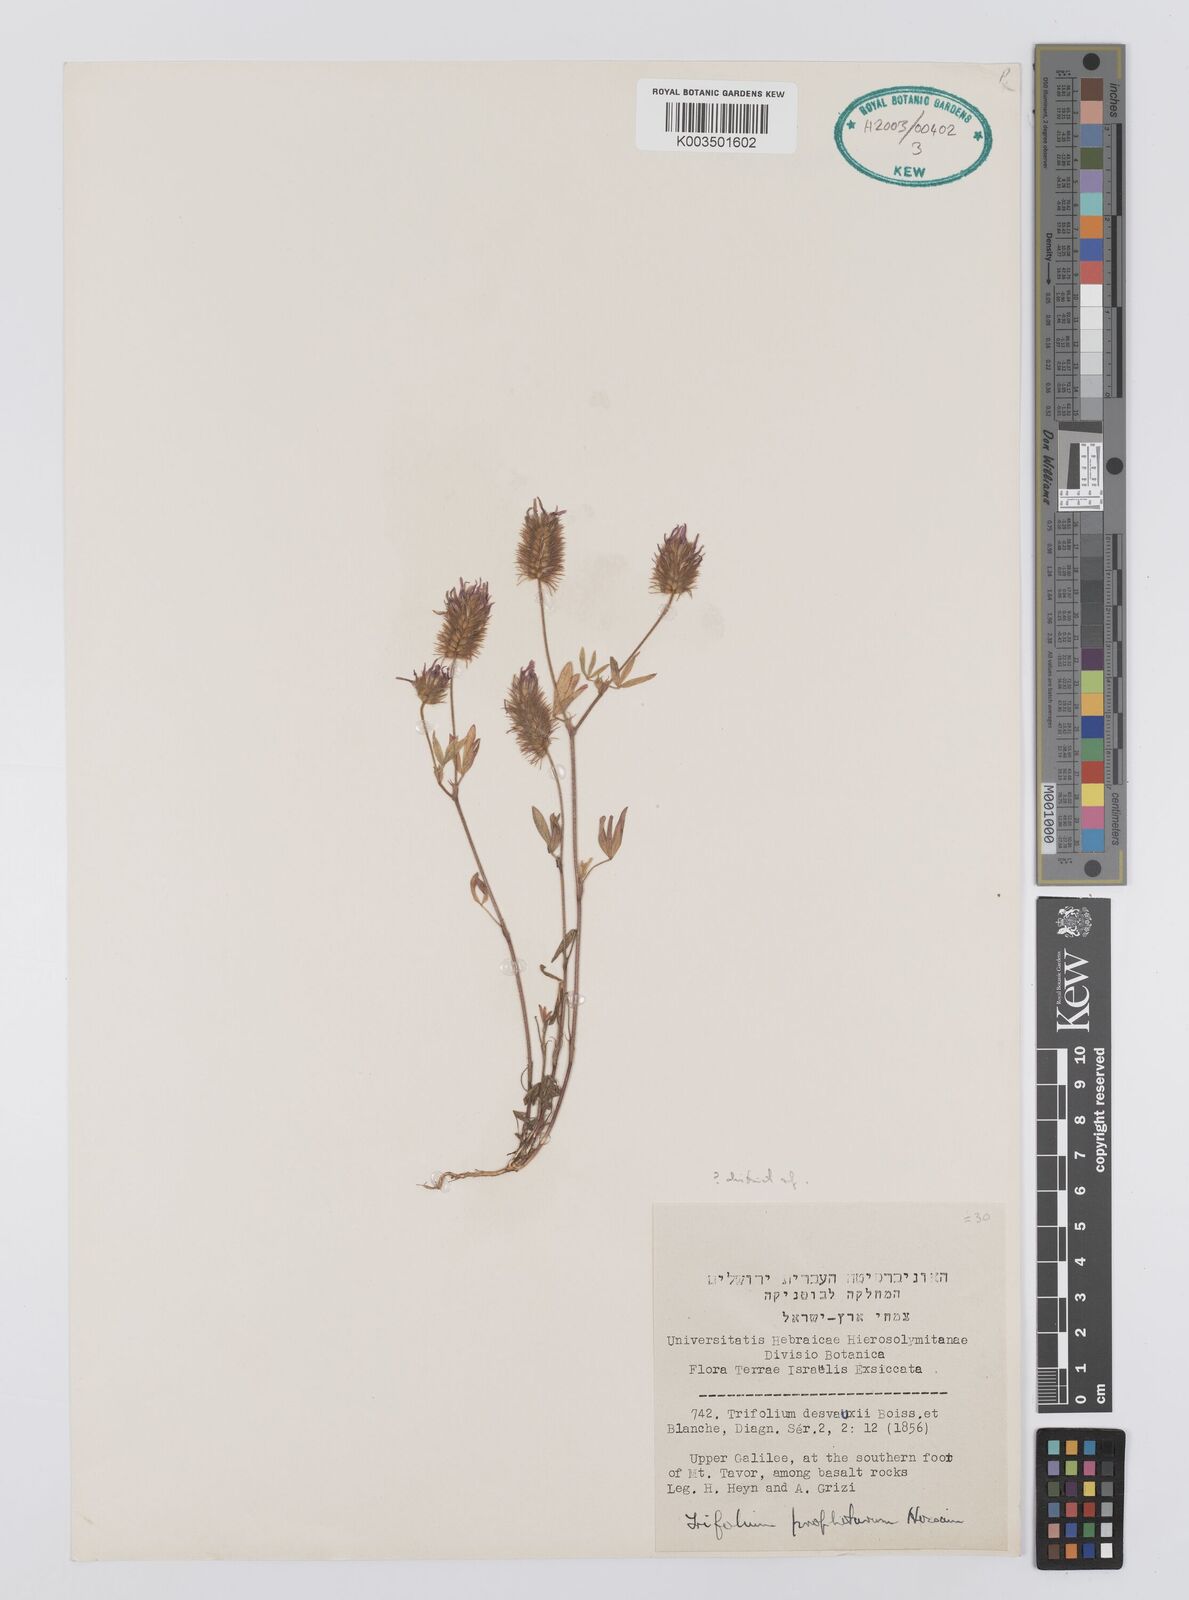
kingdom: Plantae
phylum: Tracheophyta
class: Magnoliopsida
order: Fabales
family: Fabaceae
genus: Trifolium
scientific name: Trifolium prophetarum
